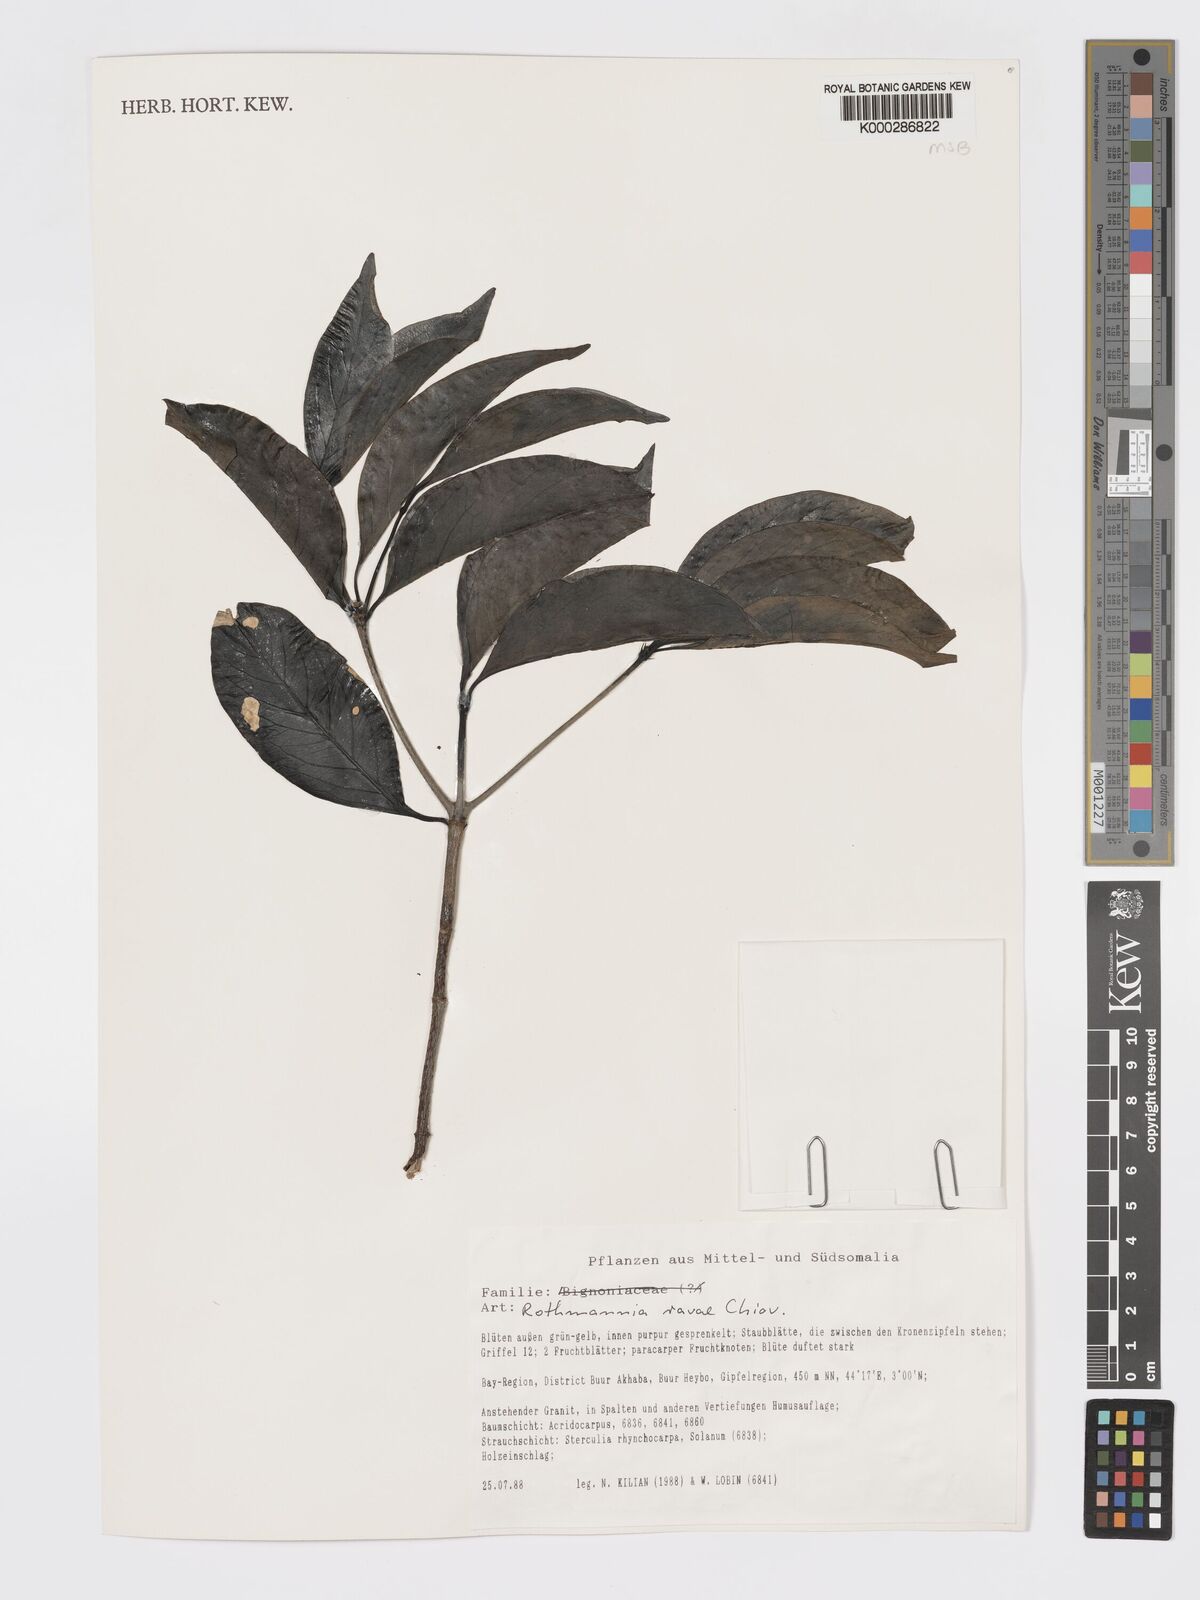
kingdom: Plantae
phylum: Tracheophyta
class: Magnoliopsida
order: Gentianales
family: Rubiaceae
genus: Rothmannia
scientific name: Rothmannia ravae
